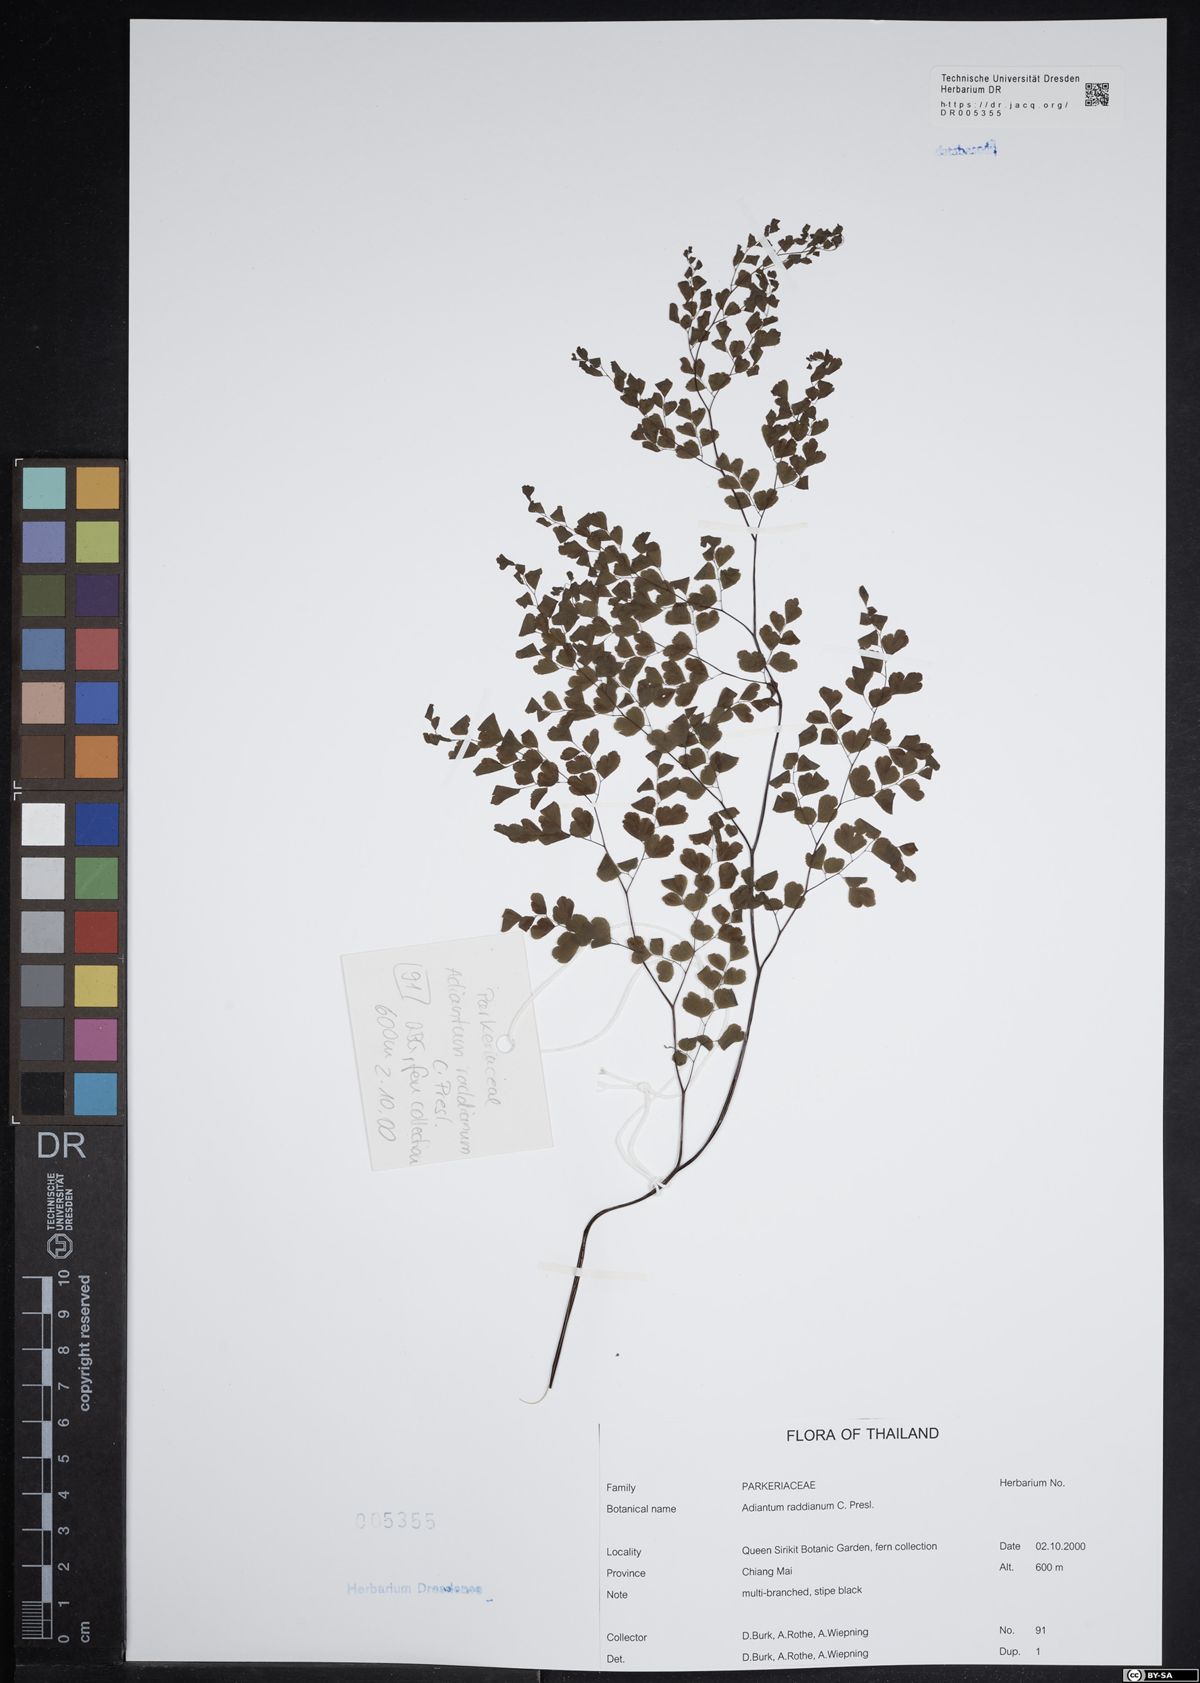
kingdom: Plantae
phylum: Tracheophyta
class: Polypodiopsida
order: Polypodiales
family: Pteridaceae
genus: Adiantum
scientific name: Adiantum raddianum
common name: Delta maidenhair fern
